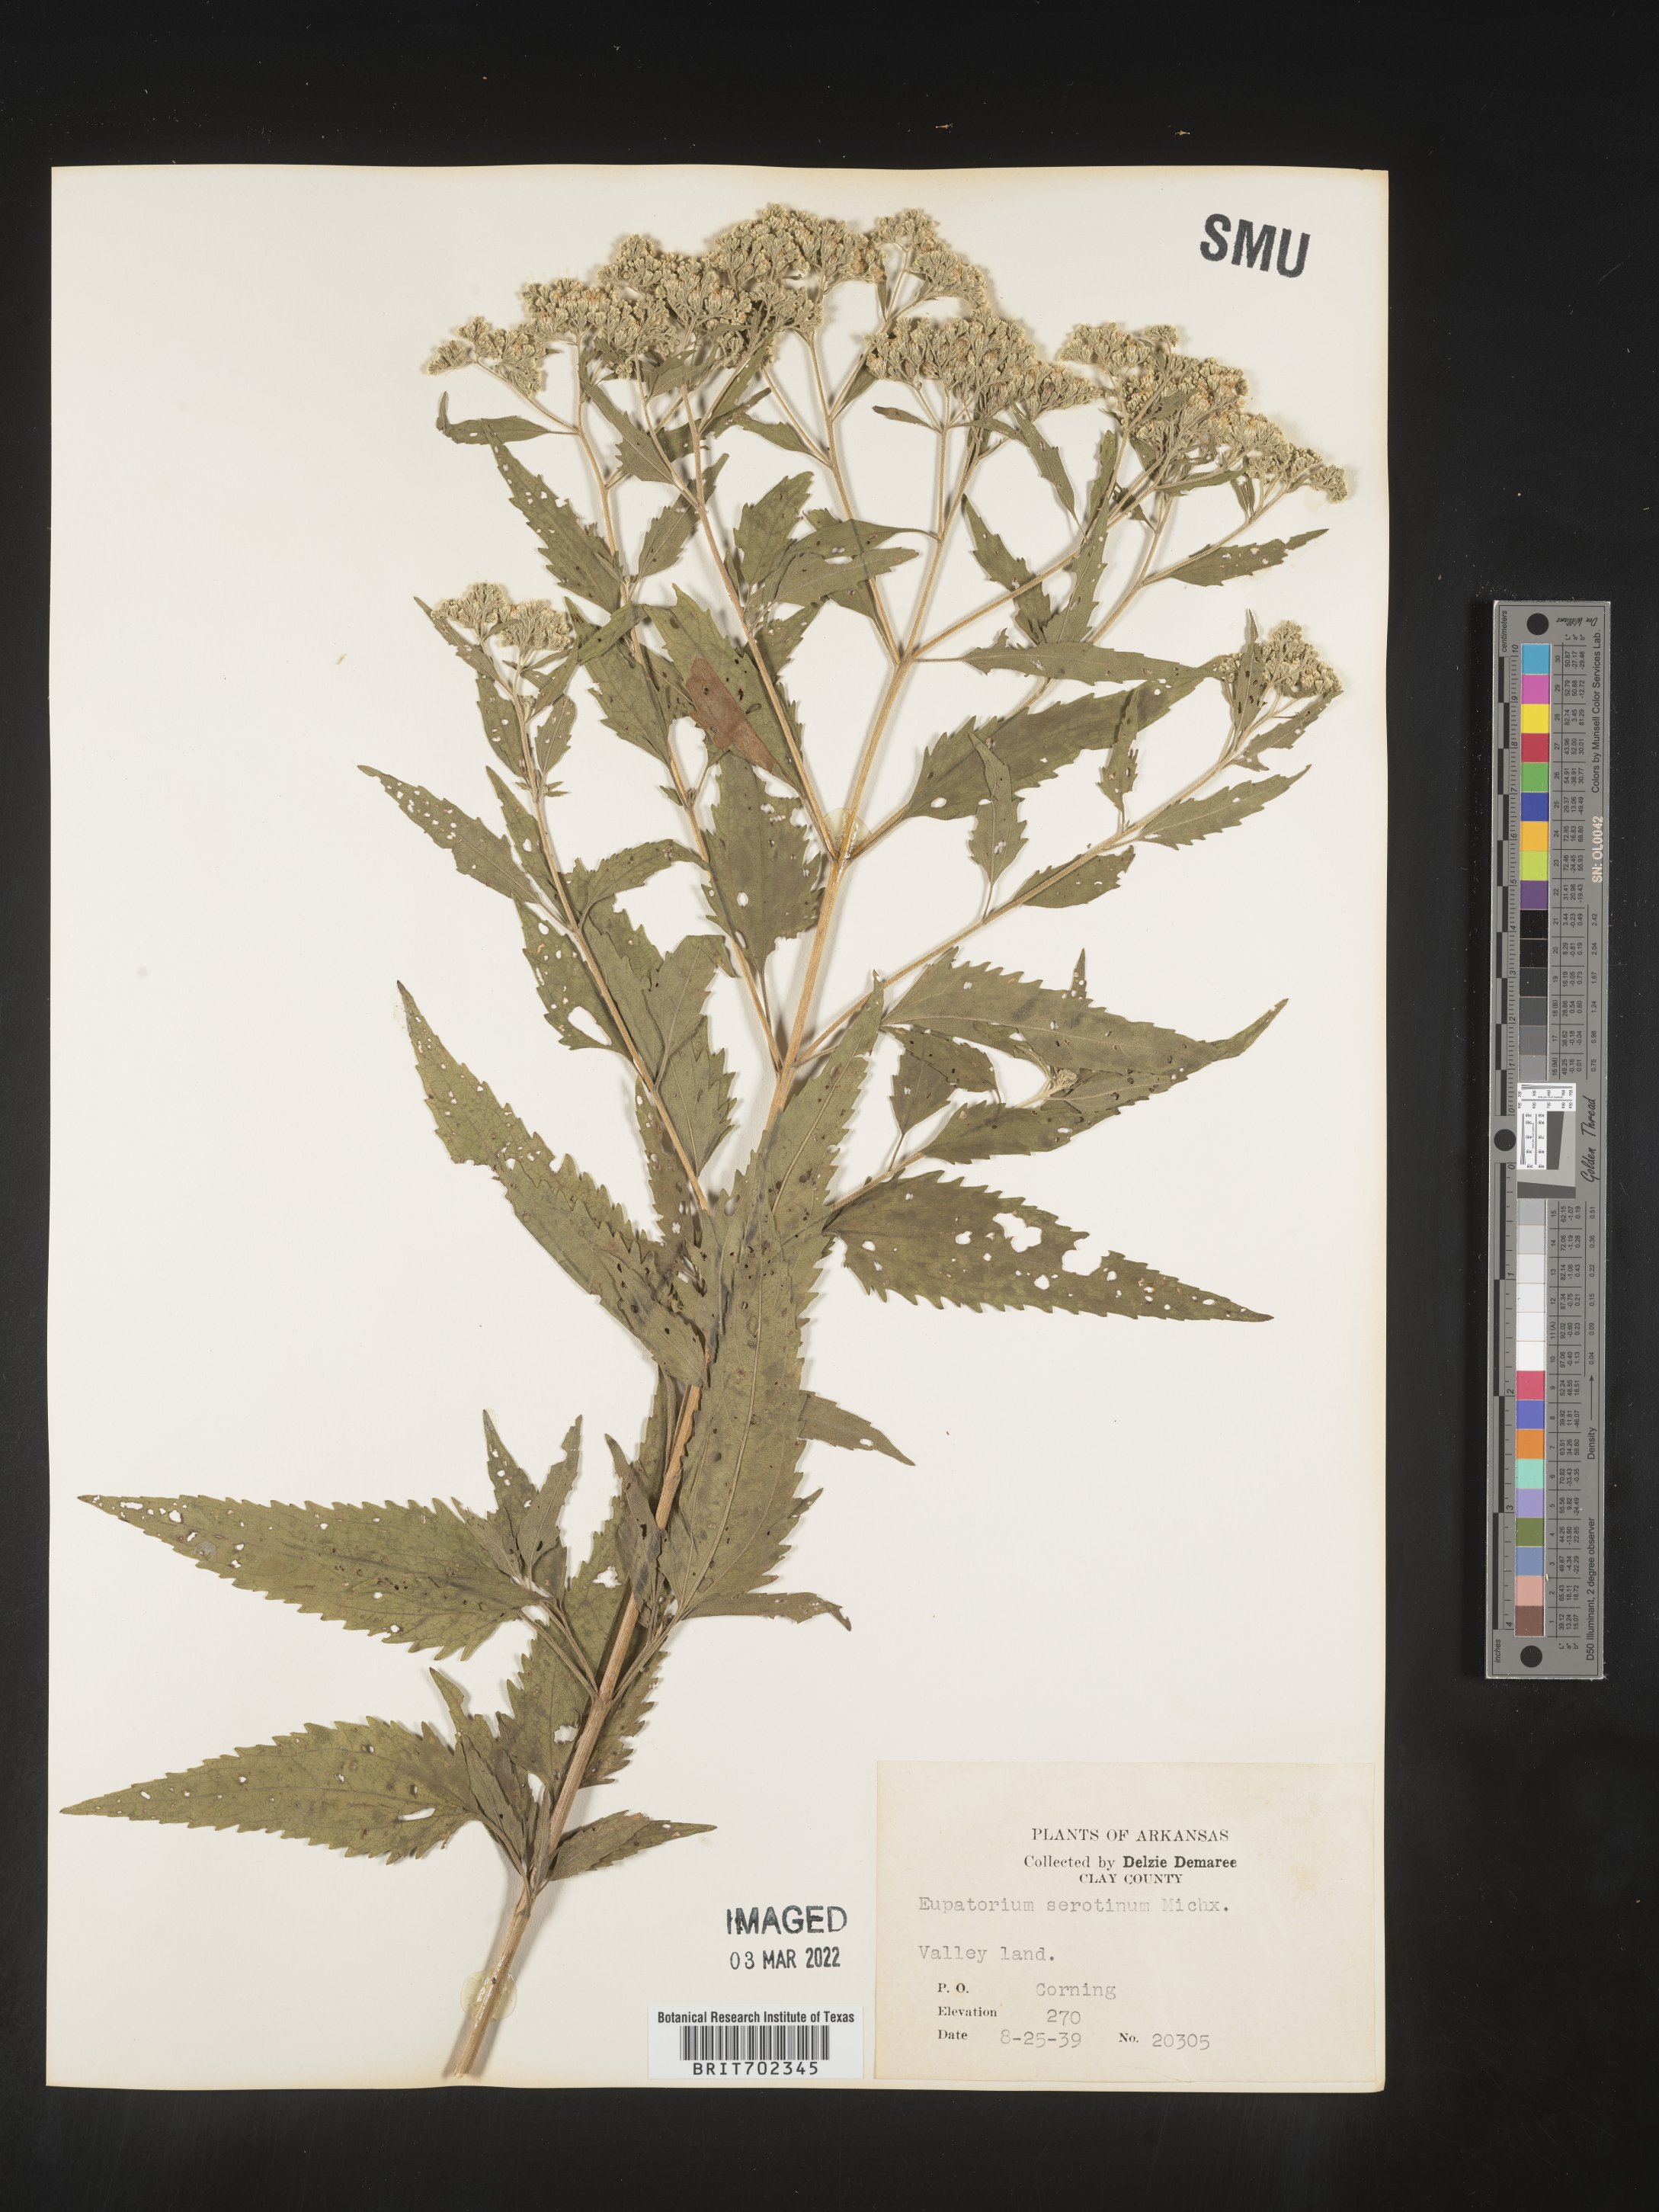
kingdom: Plantae
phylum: Tracheophyta
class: Magnoliopsida
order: Asterales
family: Asteraceae
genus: Eupatorium
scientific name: Eupatorium serotinum
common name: Late boneset
